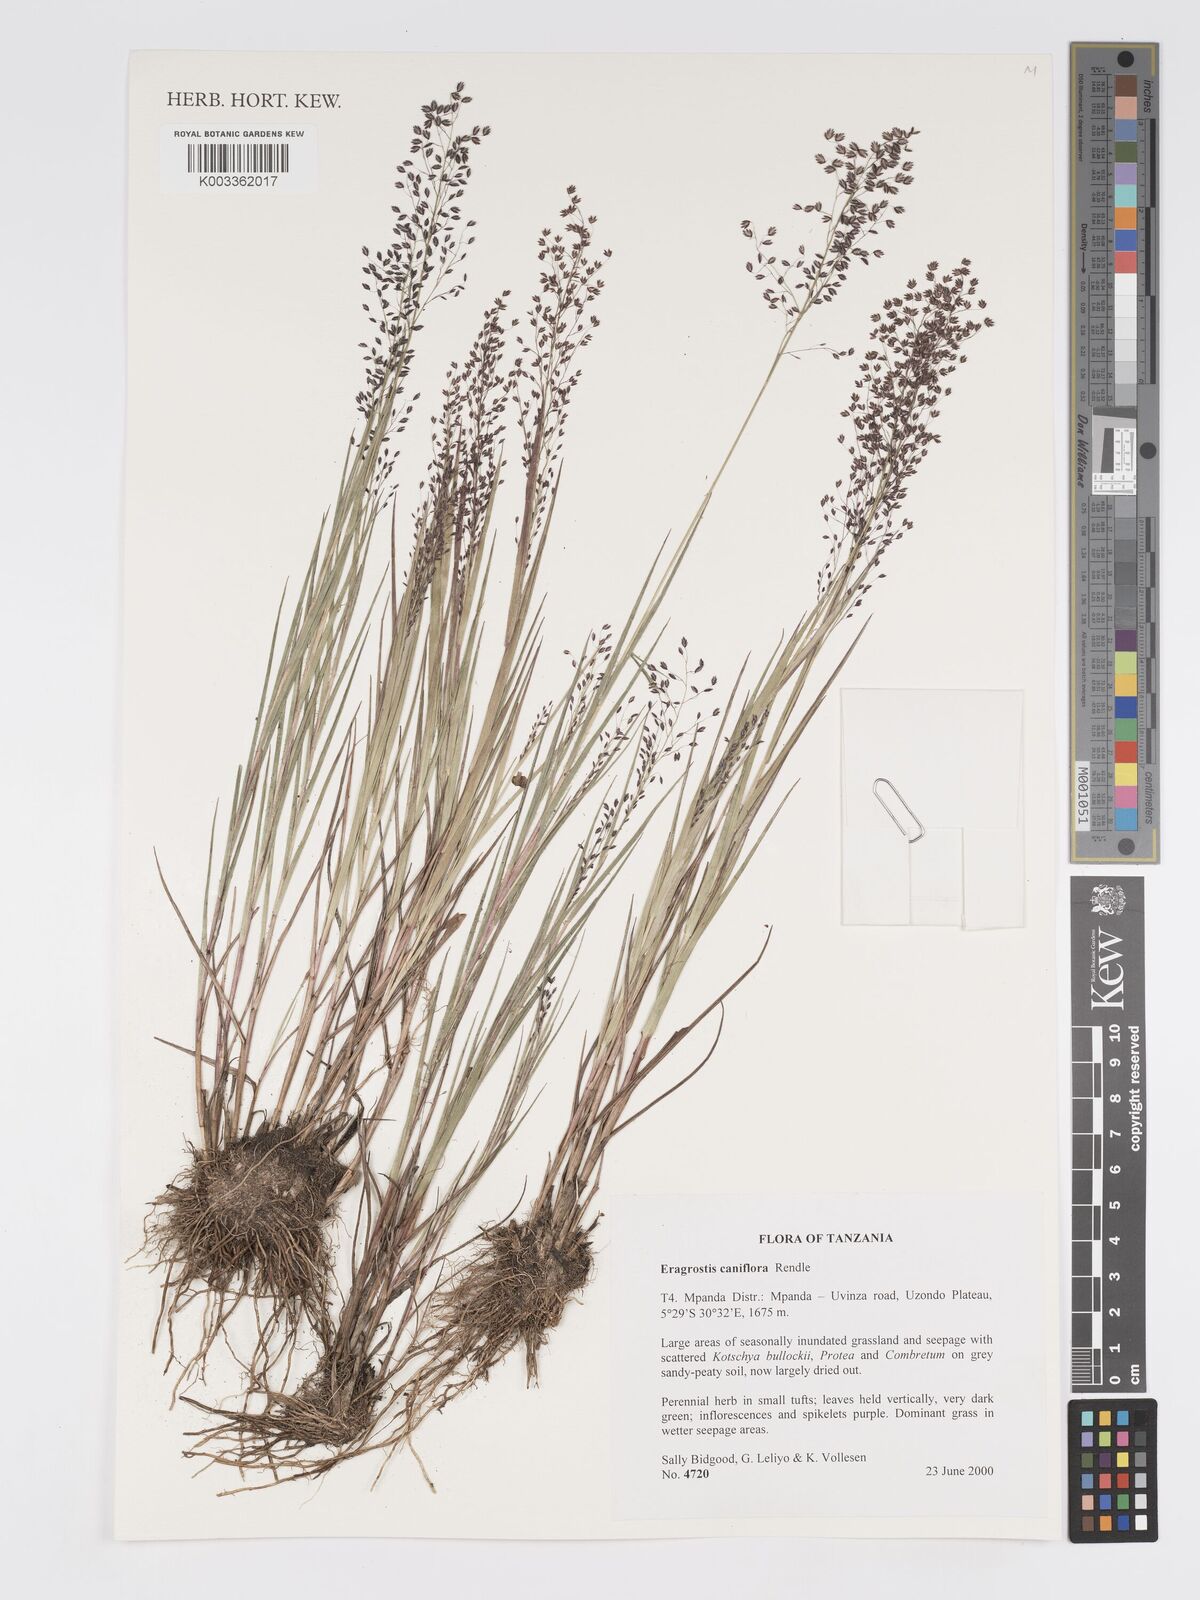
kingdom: Plantae
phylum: Tracheophyta
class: Liliopsida
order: Poales
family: Poaceae
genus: Eragrostis
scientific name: Eragrostis caniflora
